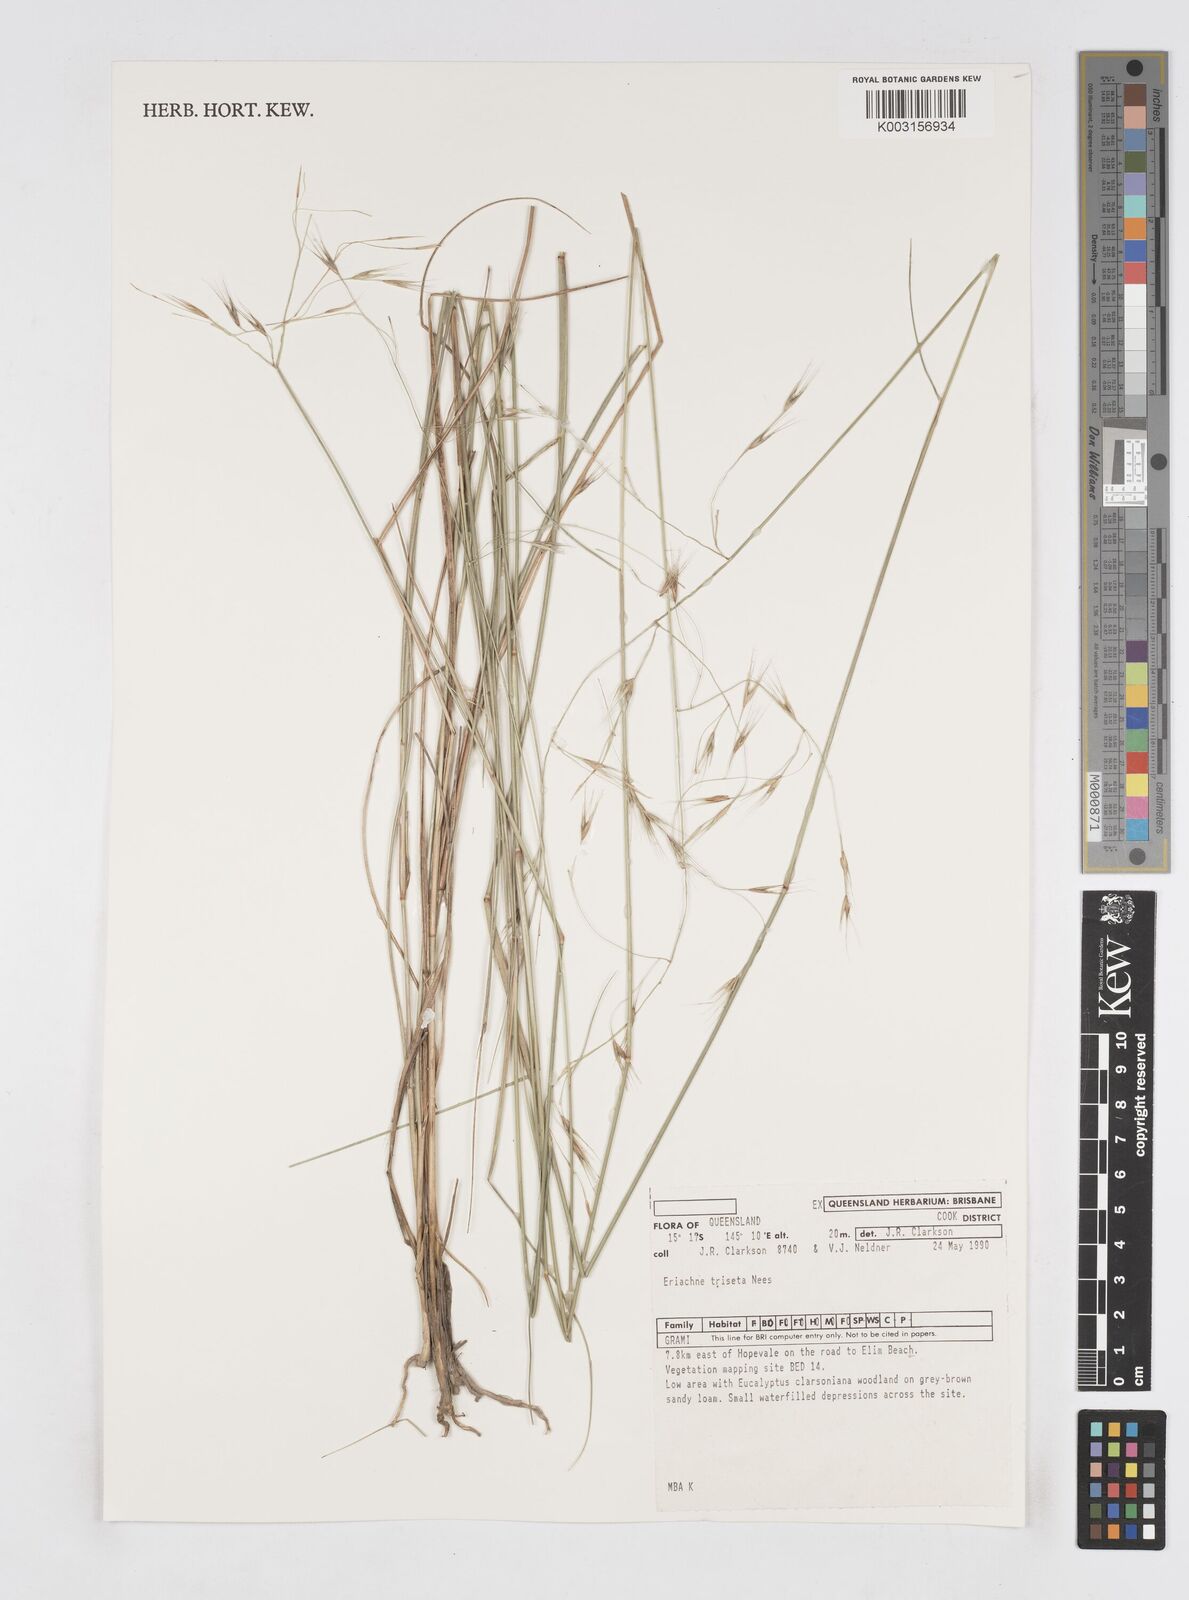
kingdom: Plantae
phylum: Tracheophyta
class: Liliopsida
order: Poales
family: Poaceae
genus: Eriachne
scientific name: Eriachne triseta
